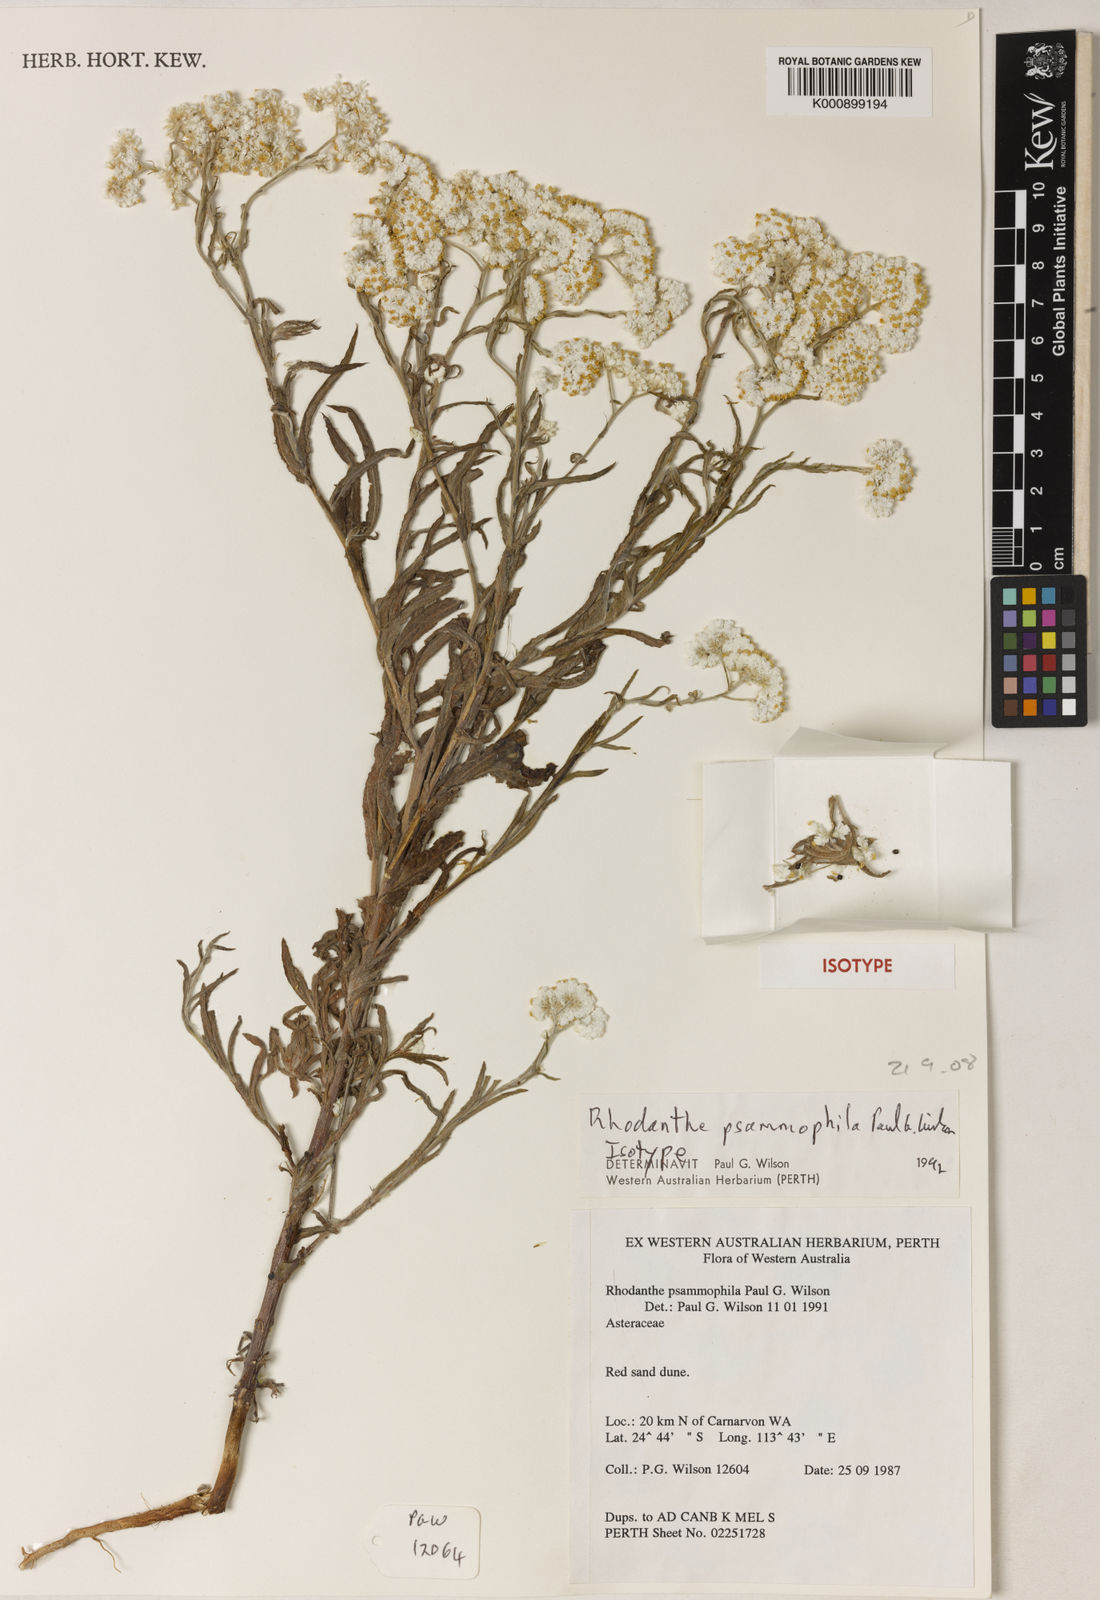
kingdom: Plantae
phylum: Tracheophyta
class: Magnoliopsida
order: Asterales
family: Asteraceae
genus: Rhodanthe
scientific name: Rhodanthe psammophila
